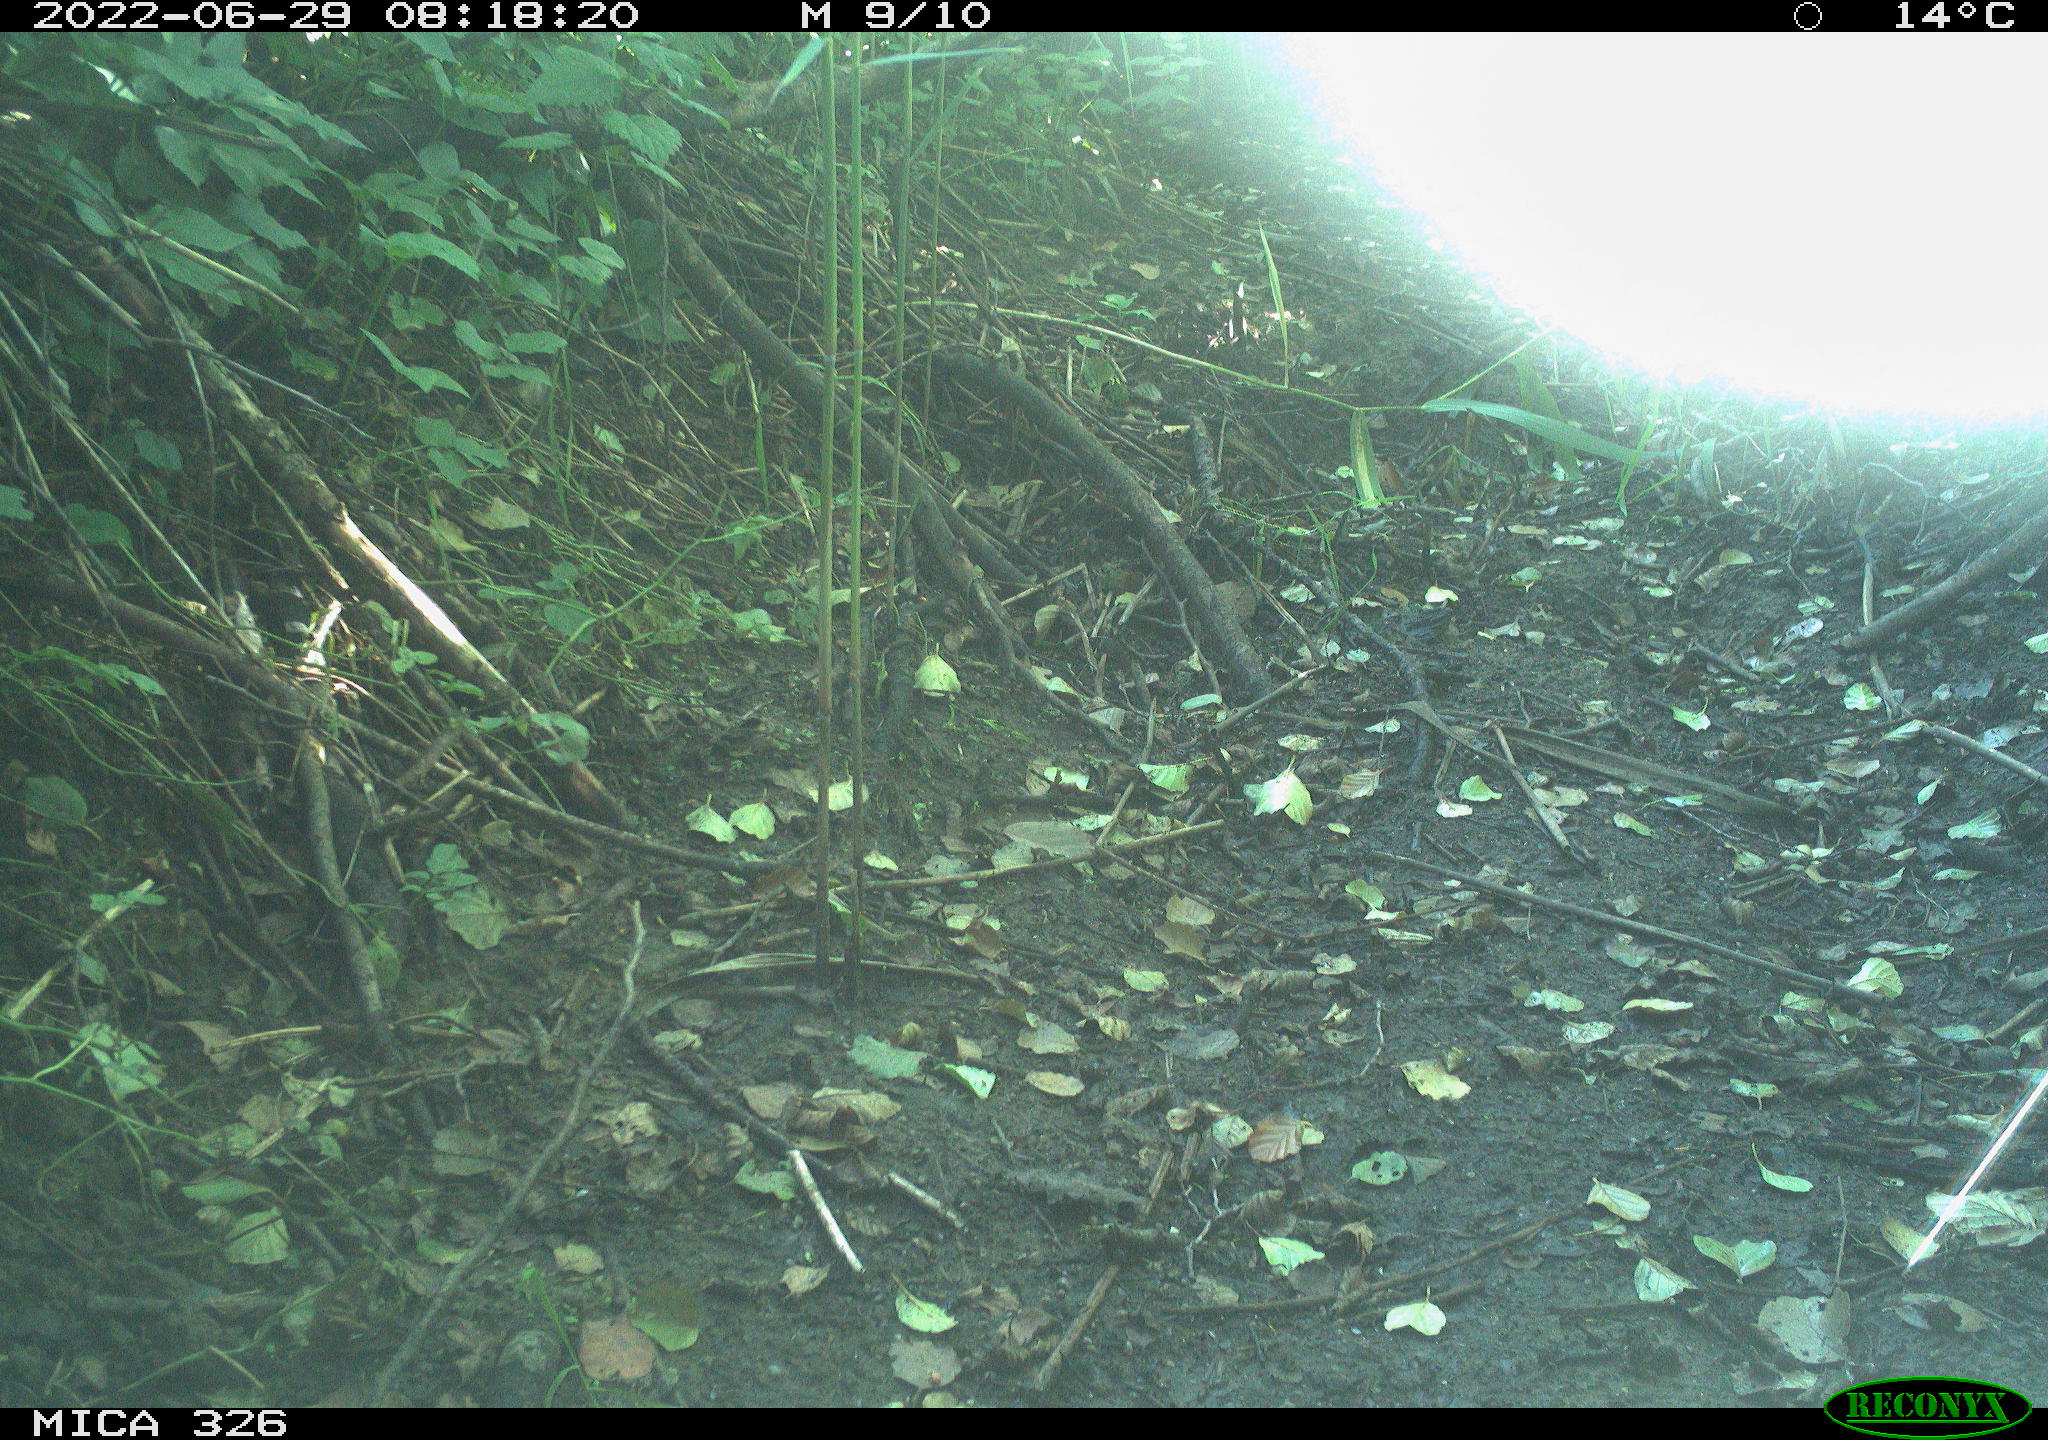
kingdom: Animalia
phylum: Chordata
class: Aves
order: Passeriformes
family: Turdidae
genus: Turdus
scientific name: Turdus philomelos
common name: Song thrush
